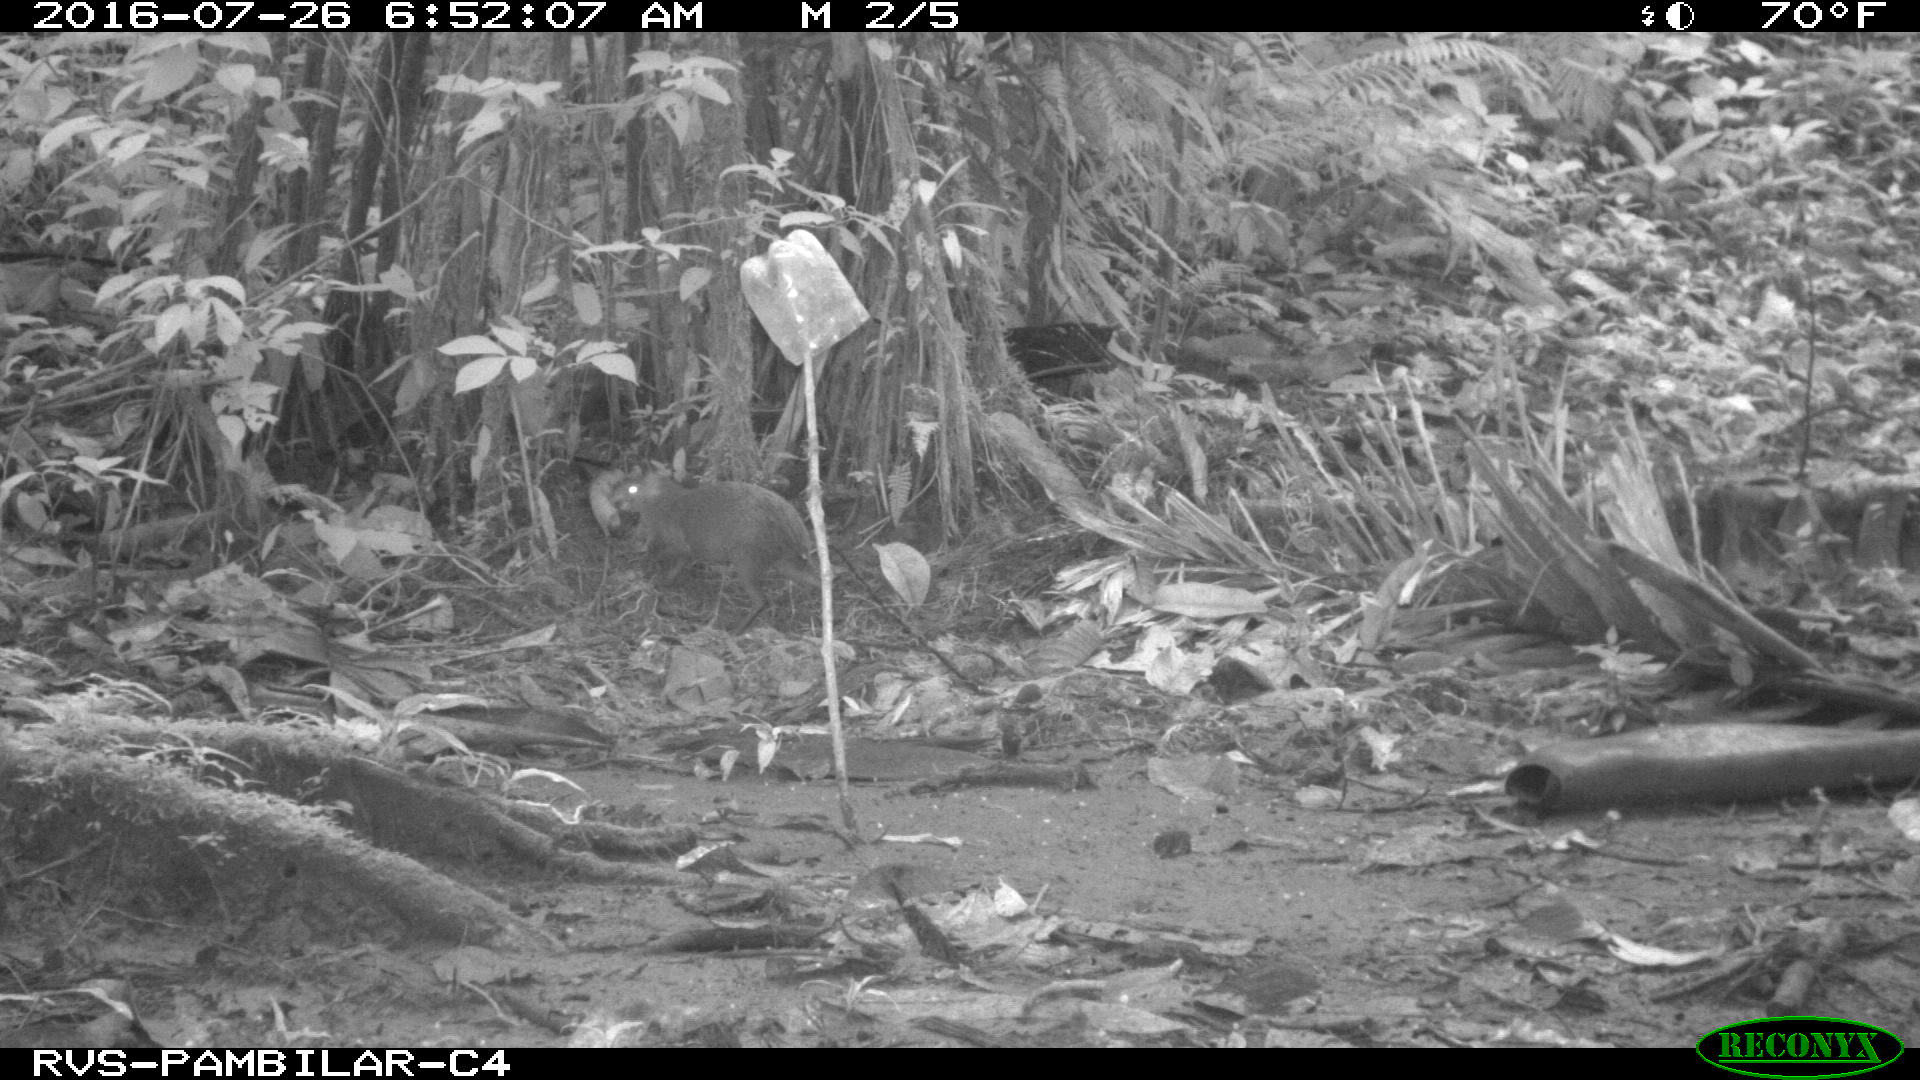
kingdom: Animalia
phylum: Chordata
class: Mammalia
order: Rodentia
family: Dasyproctidae
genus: Dasyprocta
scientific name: Dasyprocta punctata
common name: Central american agouti
